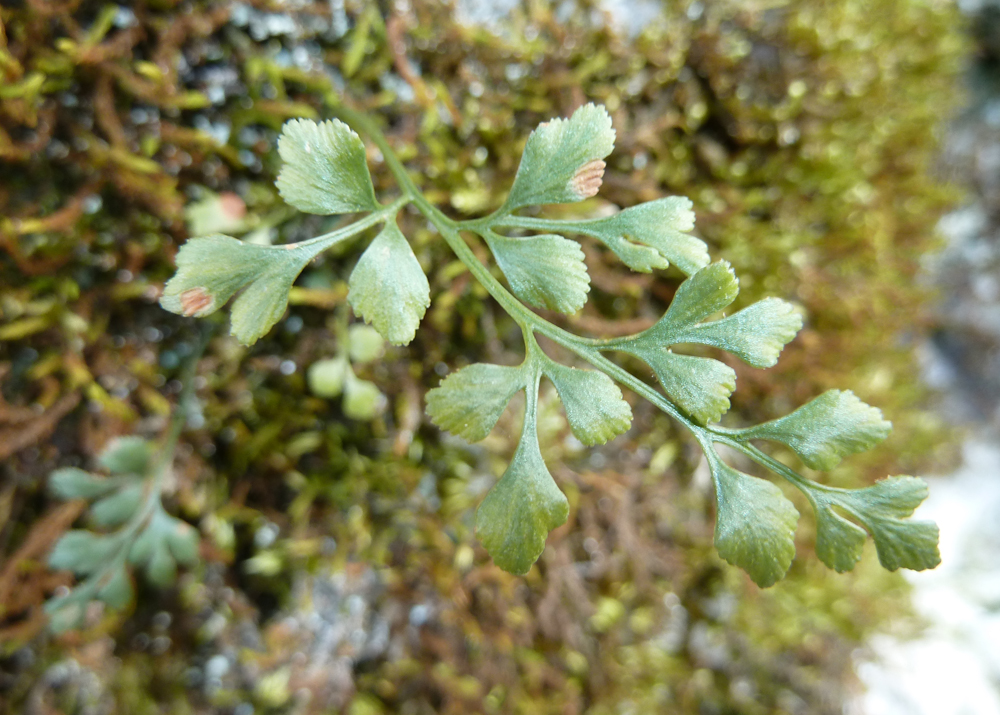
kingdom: Plantae
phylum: Tracheophyta
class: Polypodiopsida
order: Polypodiales
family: Aspleniaceae
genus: Asplenium
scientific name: Asplenium ruta-muraria
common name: Wall-rue
